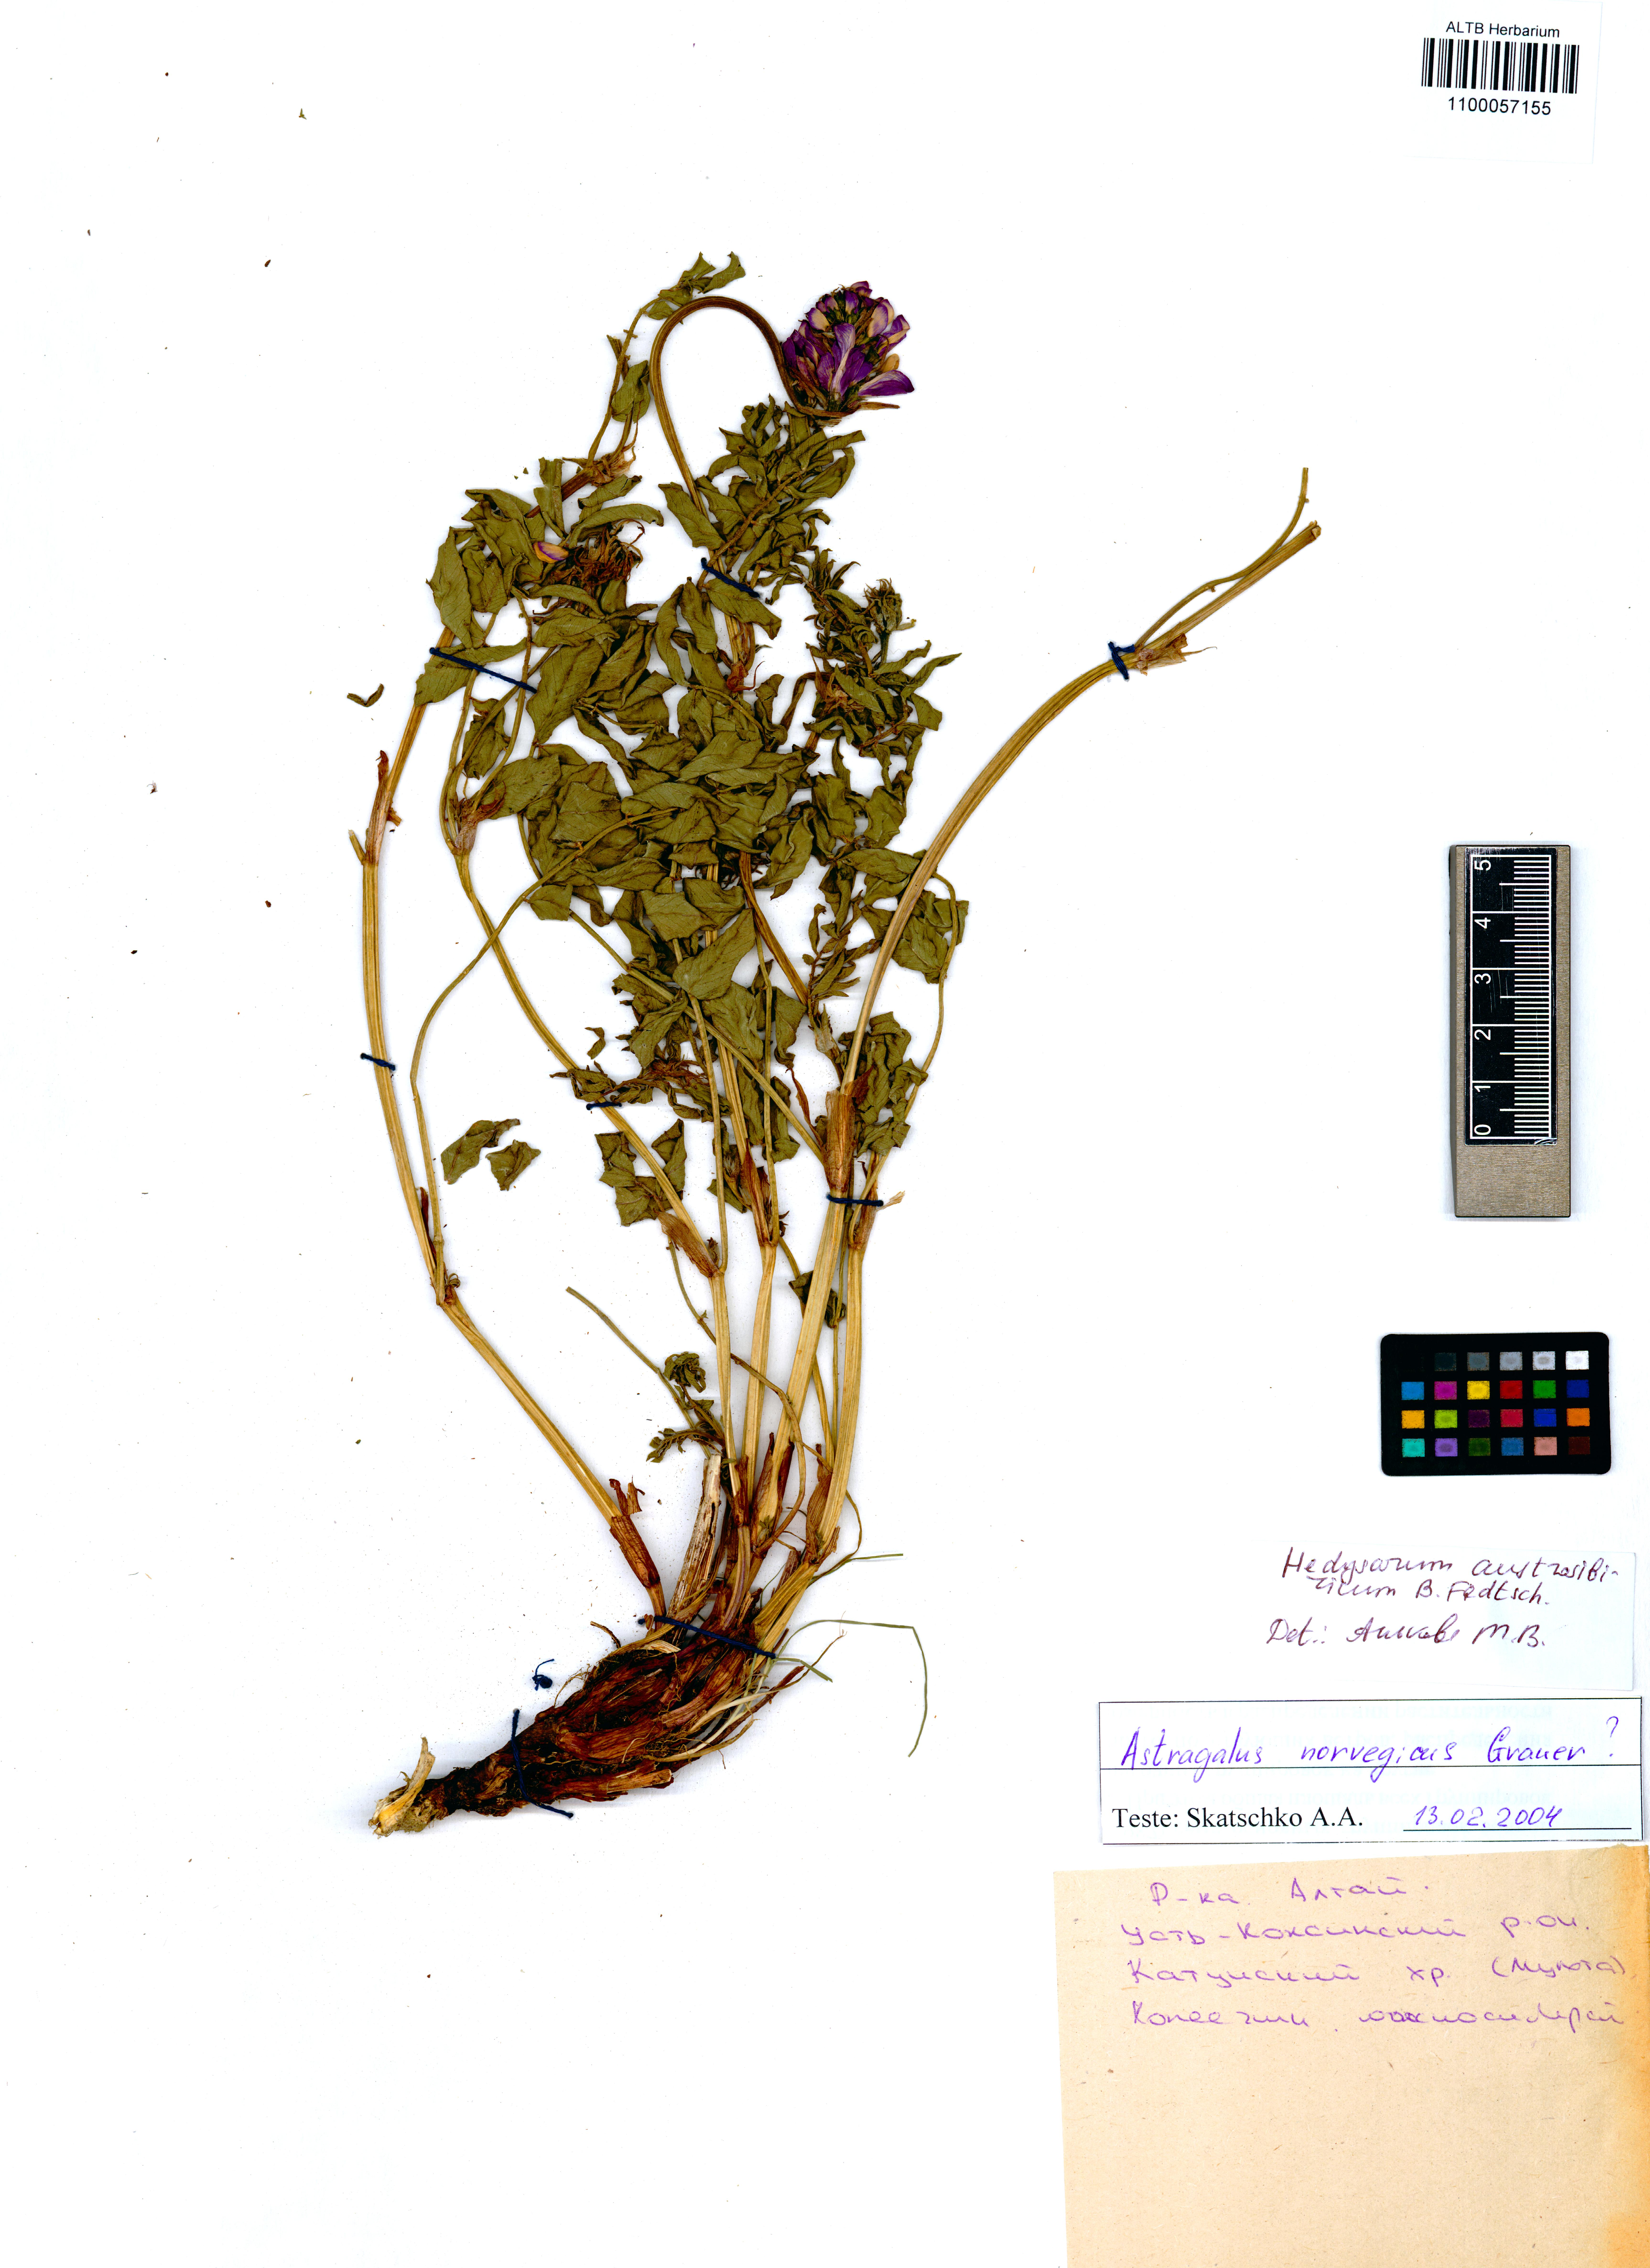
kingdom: Plantae
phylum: Tracheophyta
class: Magnoliopsida
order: Fabales
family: Fabaceae
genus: Hedysarum
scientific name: Hedysarum neglectum
